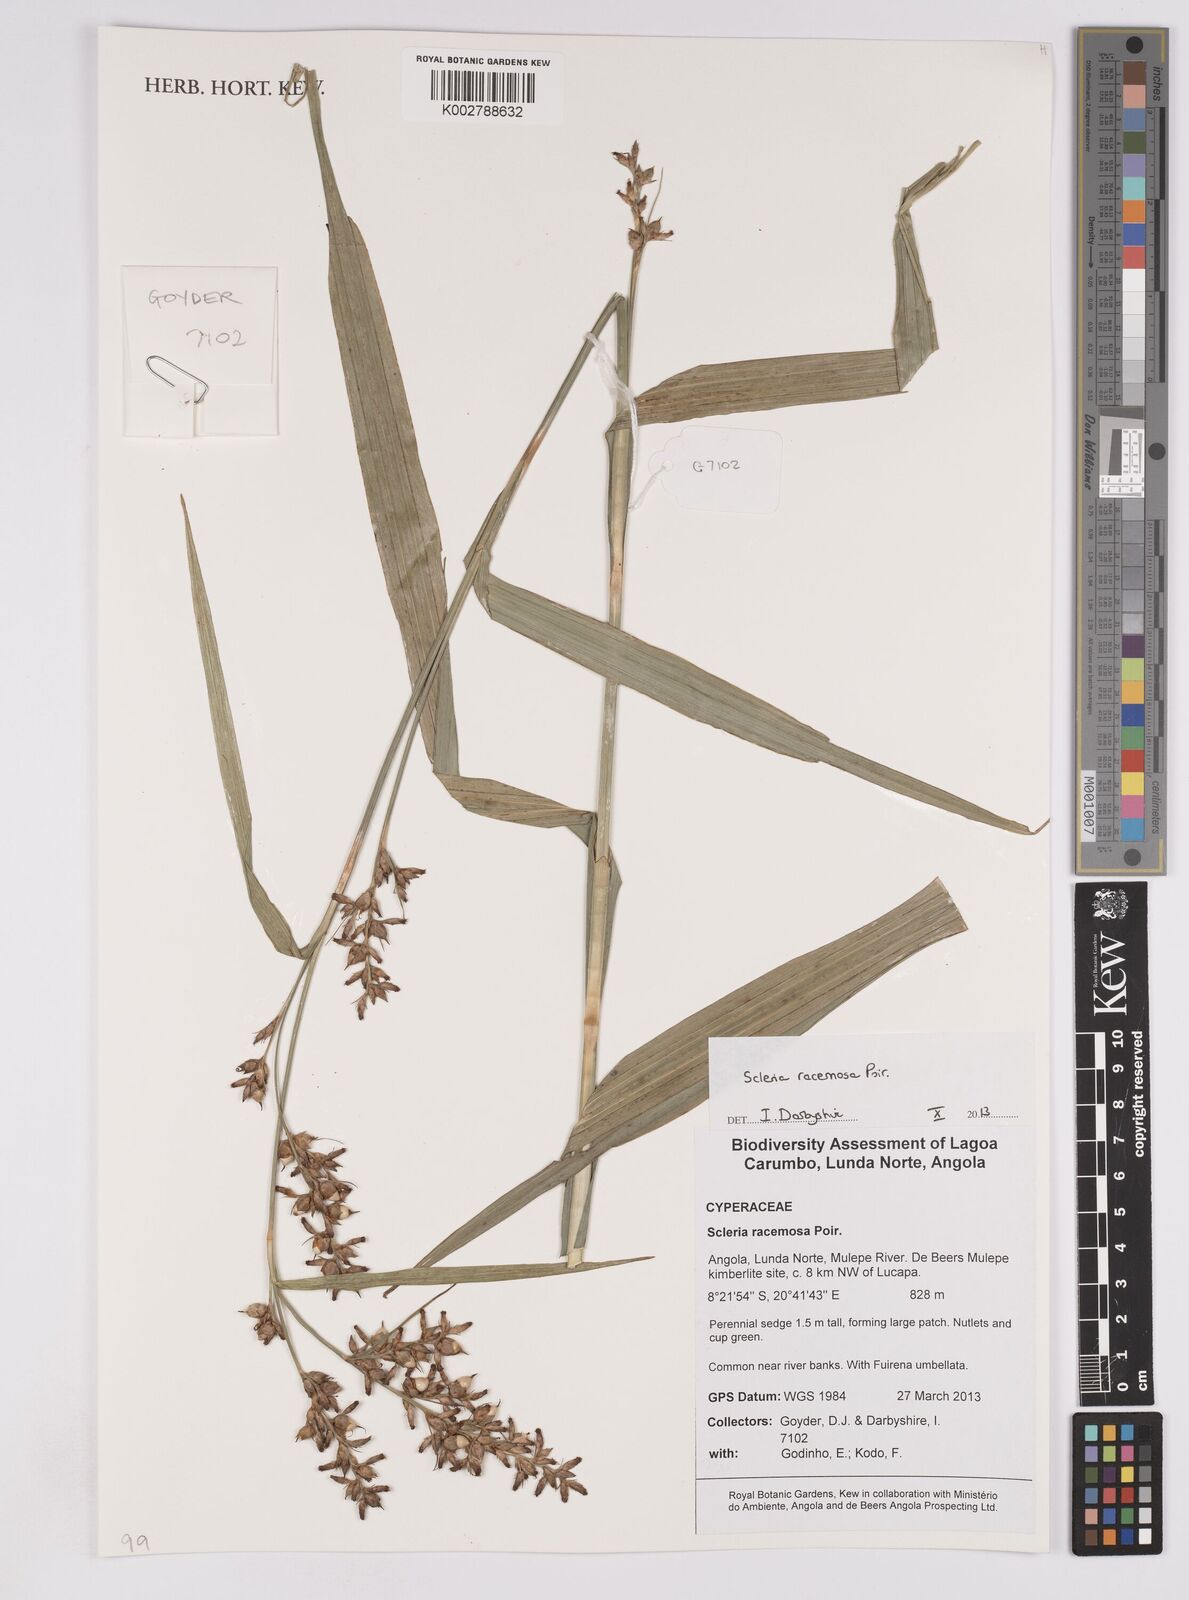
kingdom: Plantae
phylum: Tracheophyta
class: Liliopsida
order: Poales
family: Cyperaceae
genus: Scleria
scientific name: Scleria racemosa
